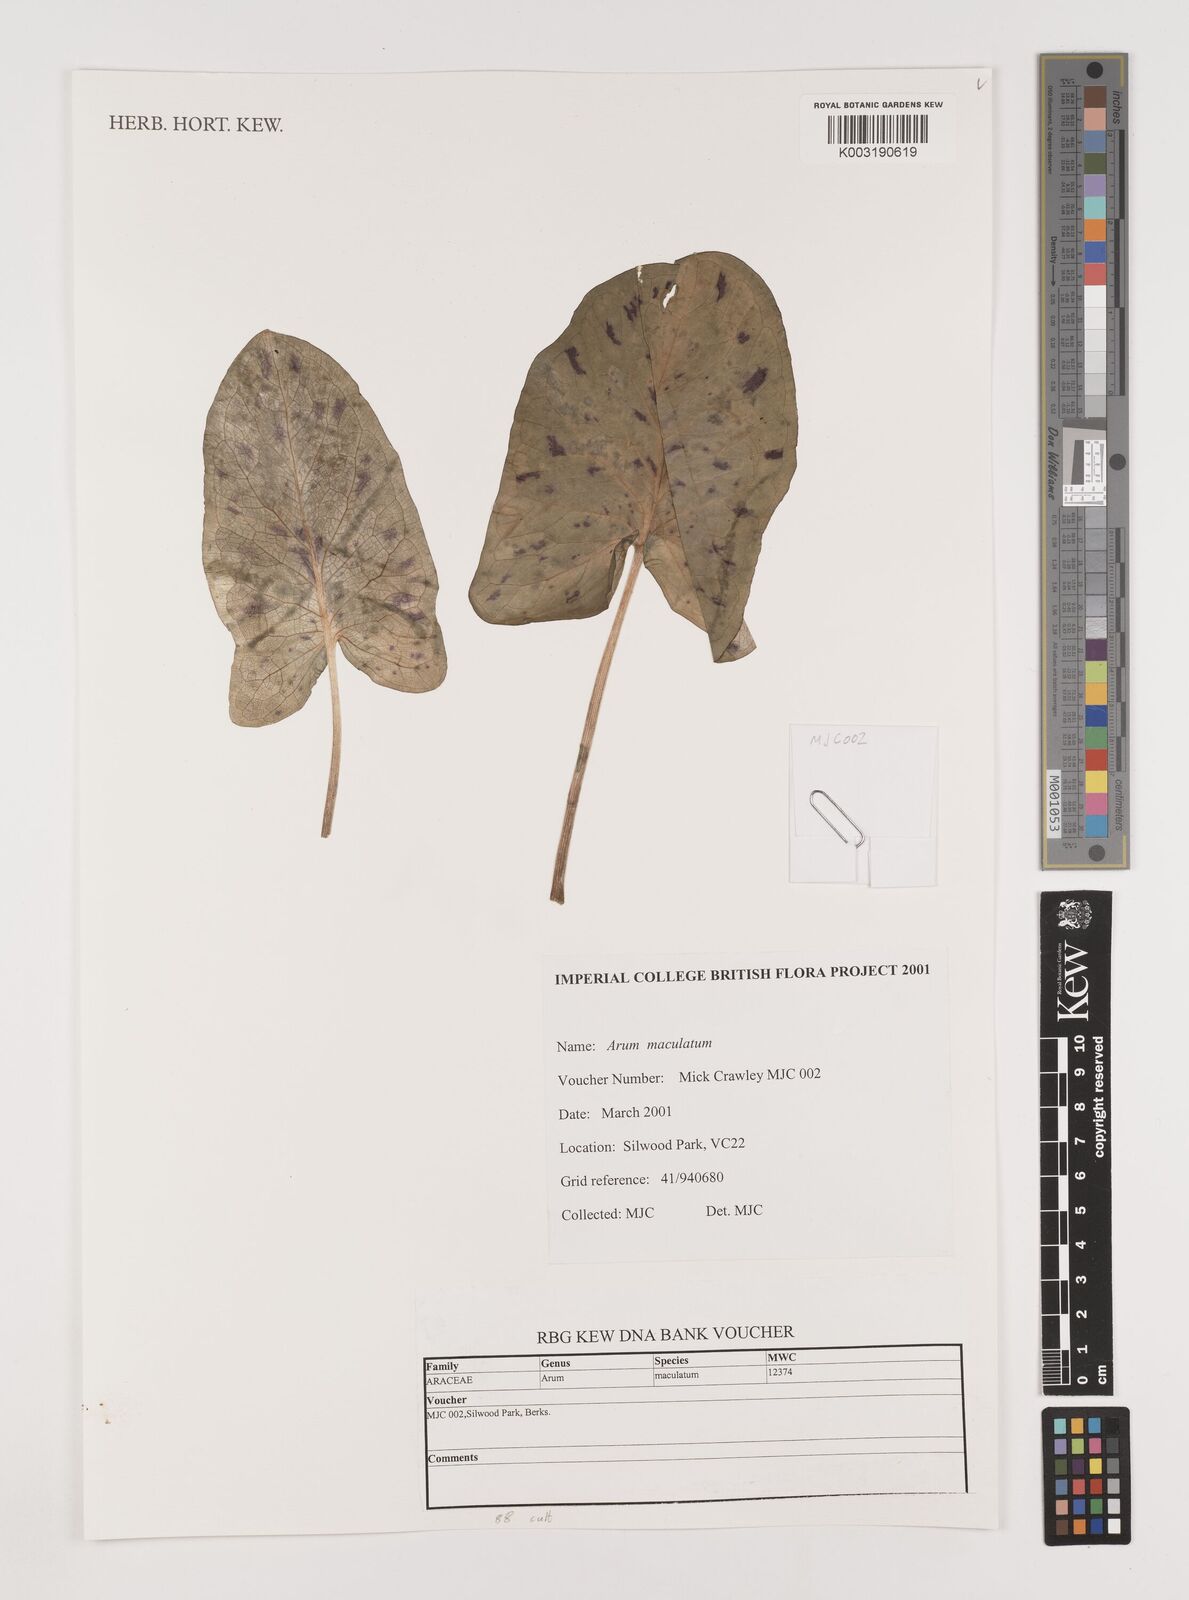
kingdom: Plantae
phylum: Tracheophyta
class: Liliopsida
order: Alismatales
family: Araceae
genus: Arum
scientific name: Arum maculatum
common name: Lords-and-ladies
